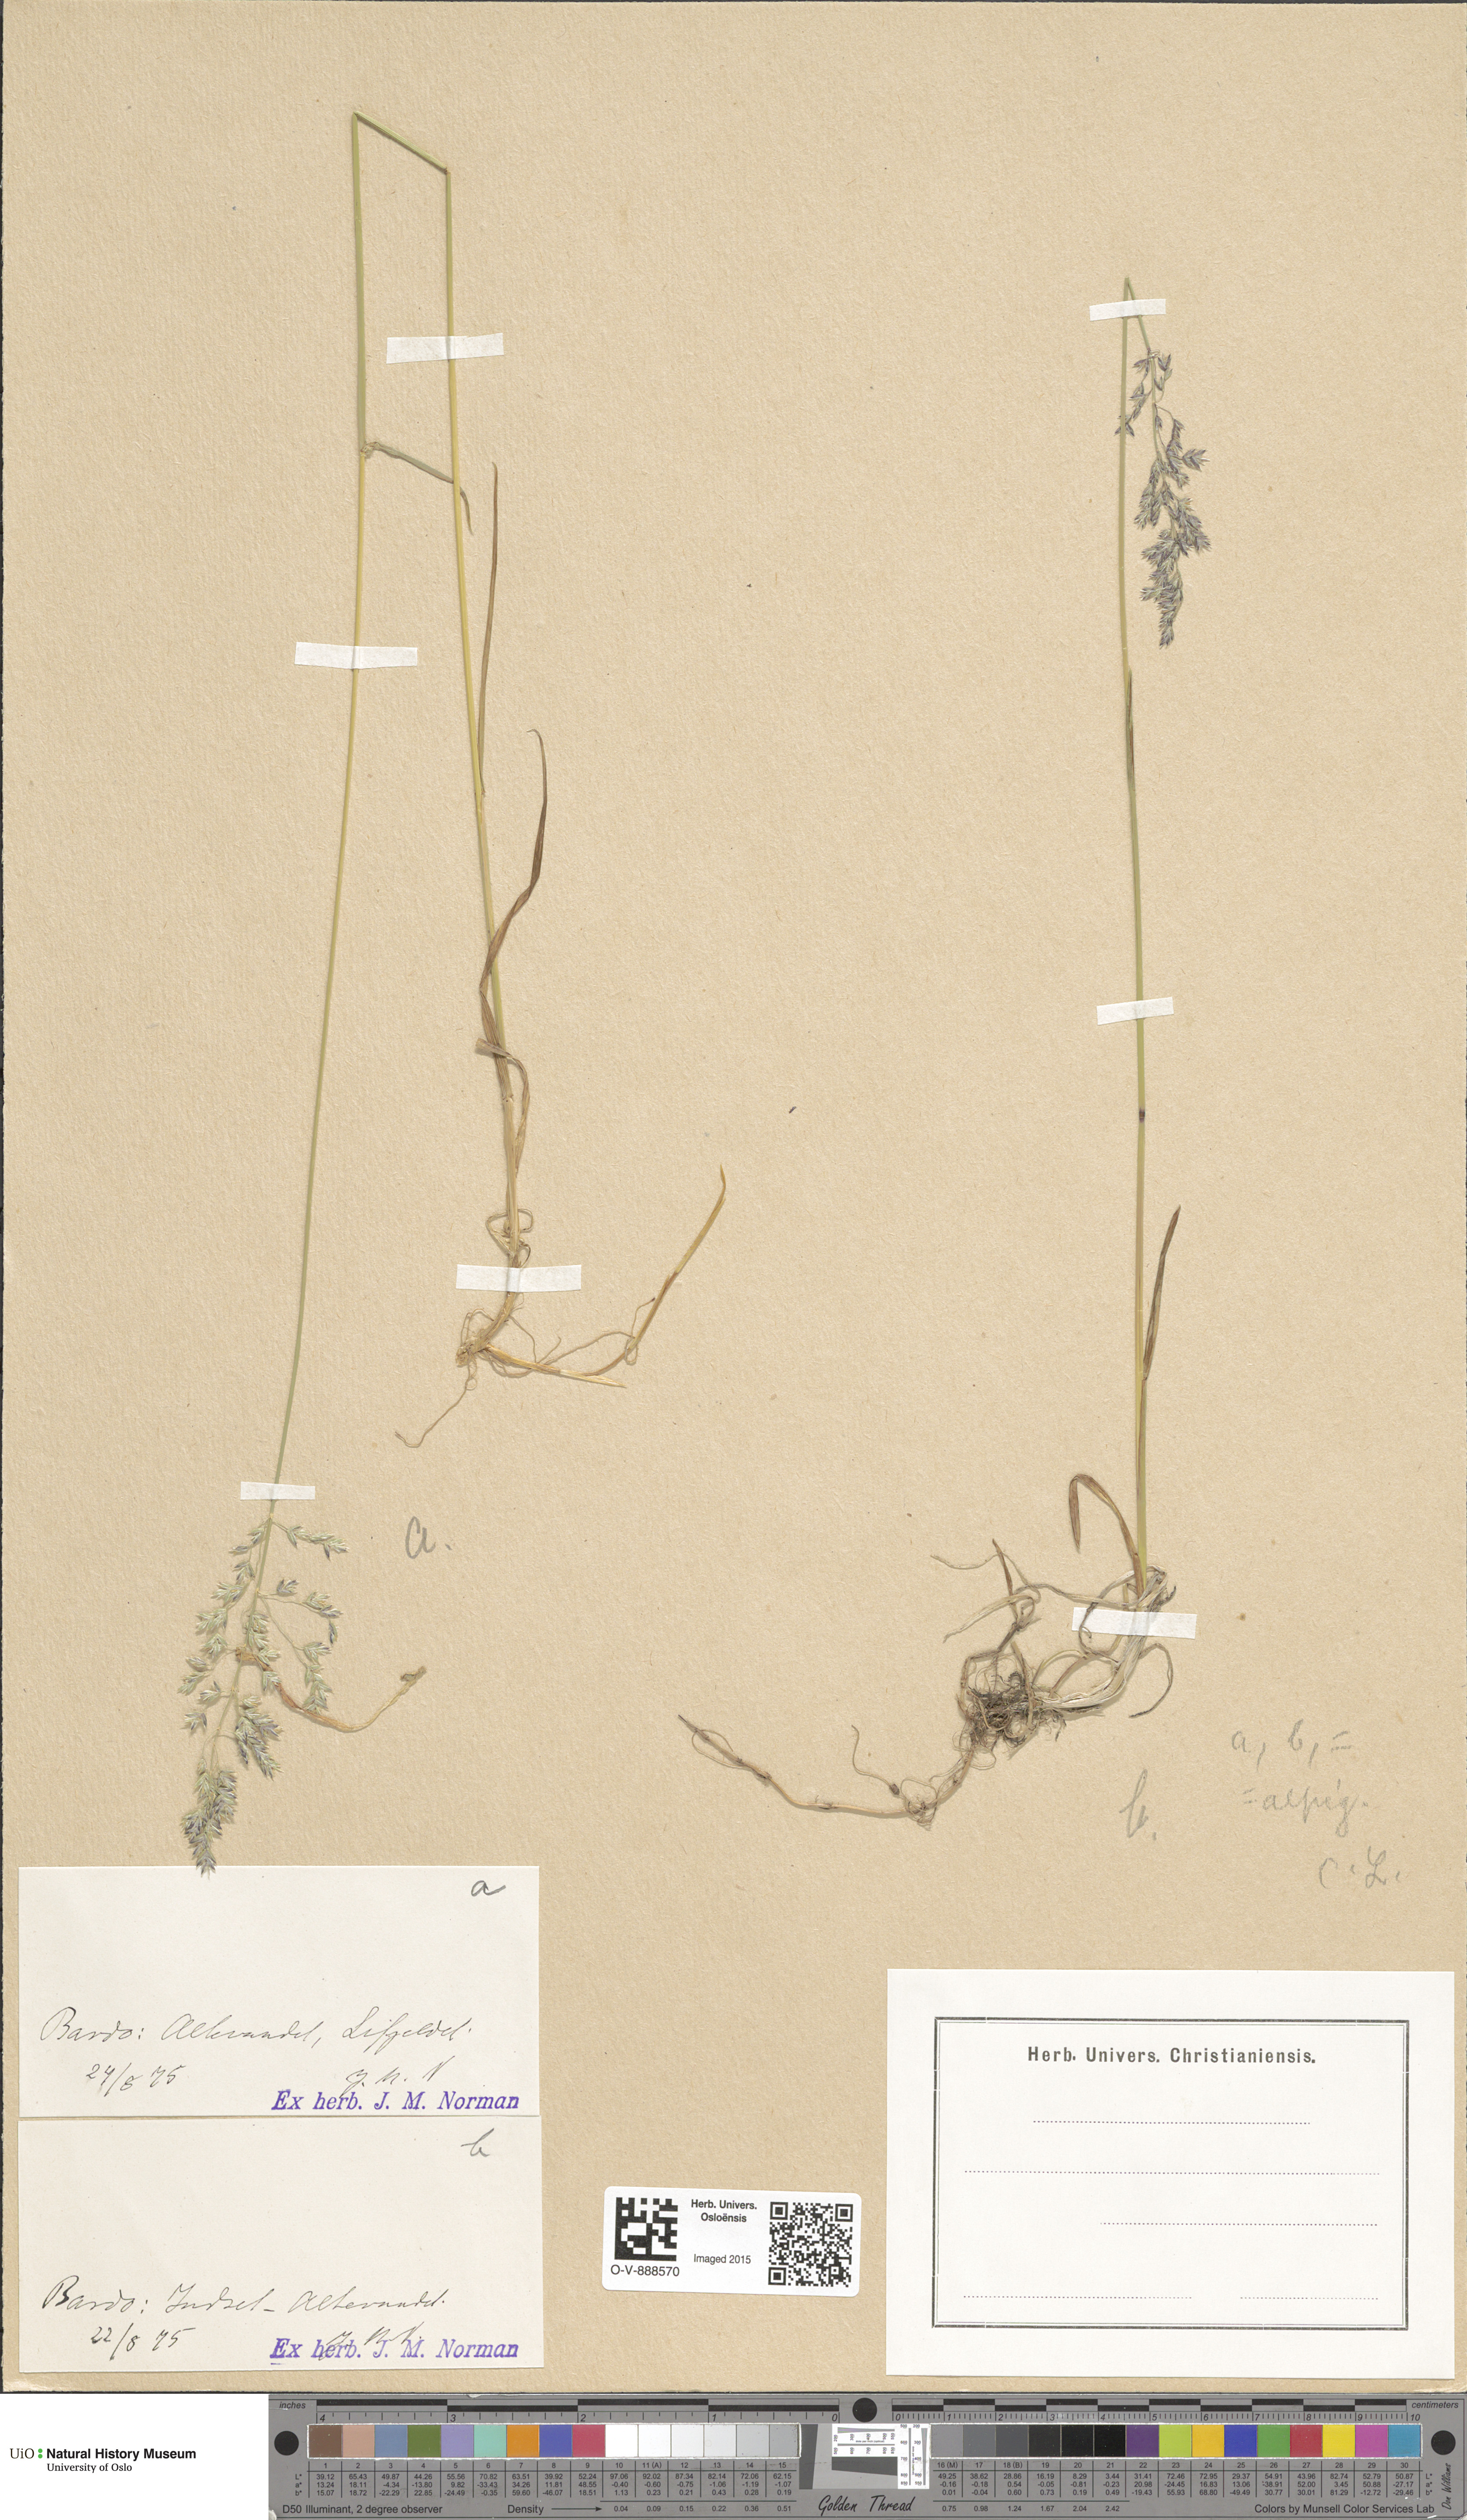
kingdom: Plantae
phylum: Tracheophyta
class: Liliopsida
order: Poales
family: Poaceae
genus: Poa
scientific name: Poa alpigena
